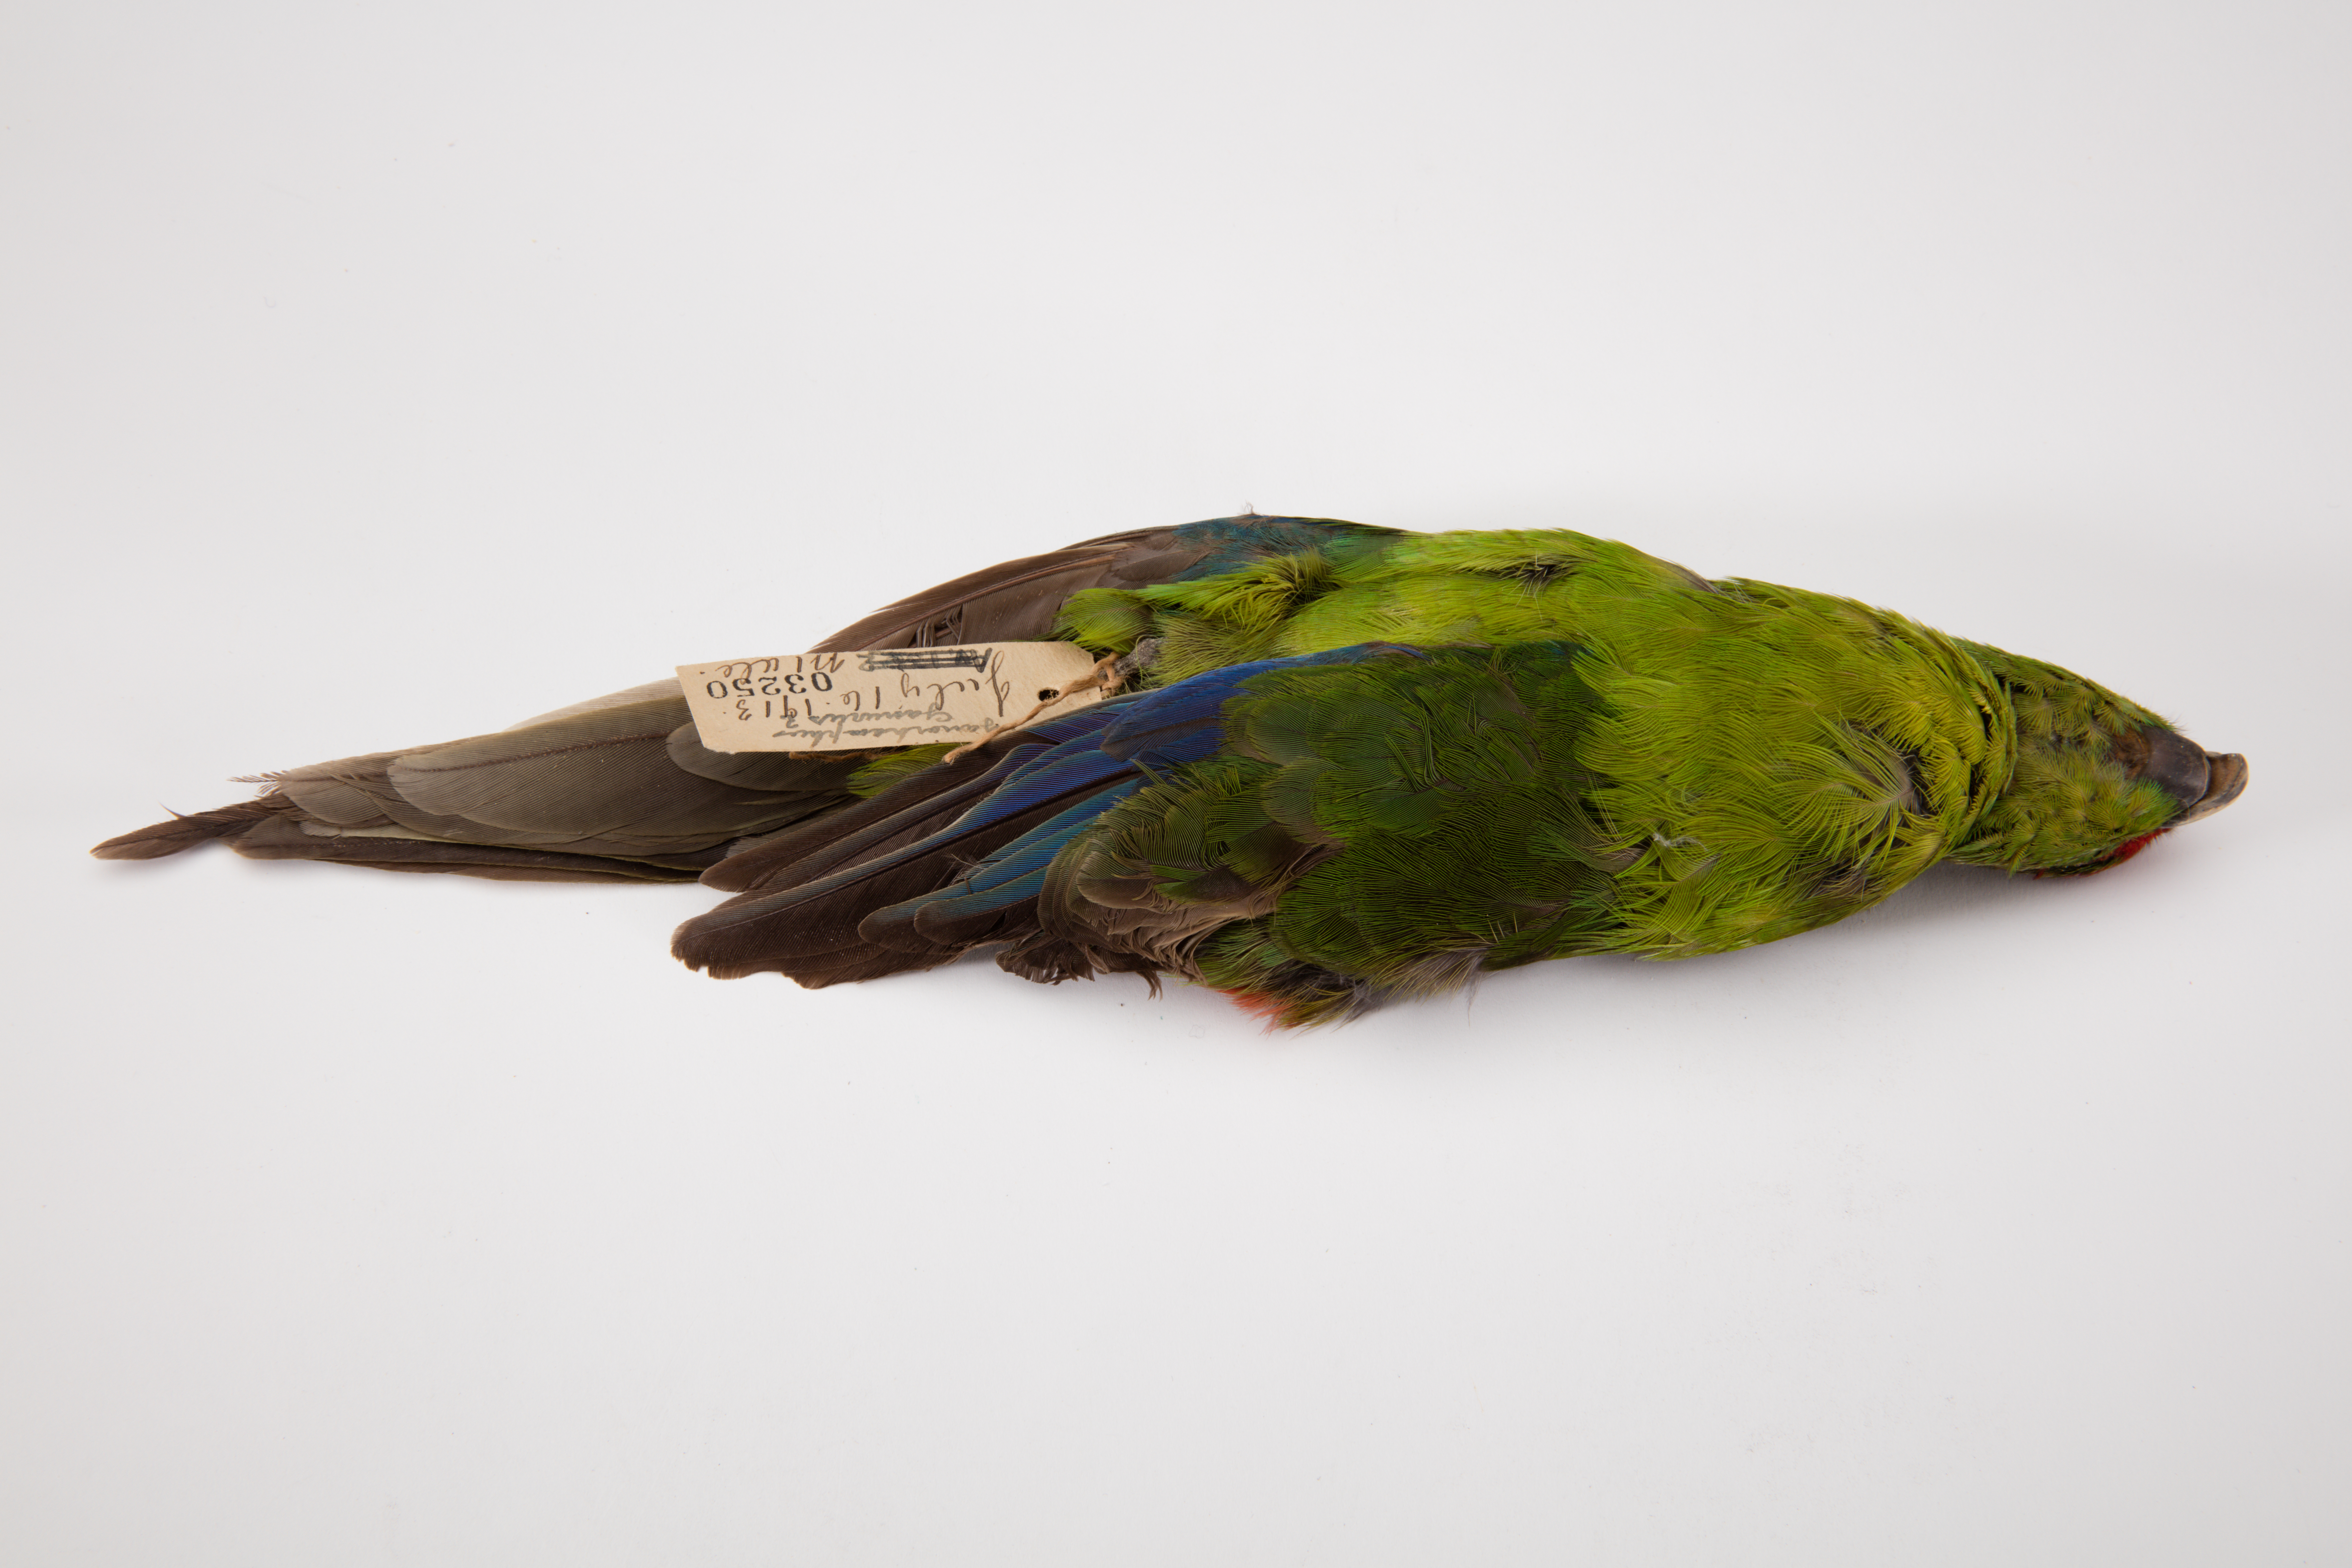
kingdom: Animalia
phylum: Chordata
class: Aves
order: Psittaciformes
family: Psittacidae
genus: Cyanoramphus
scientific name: Cyanoramphus novaezelandiae
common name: Red-fronted parakeet
